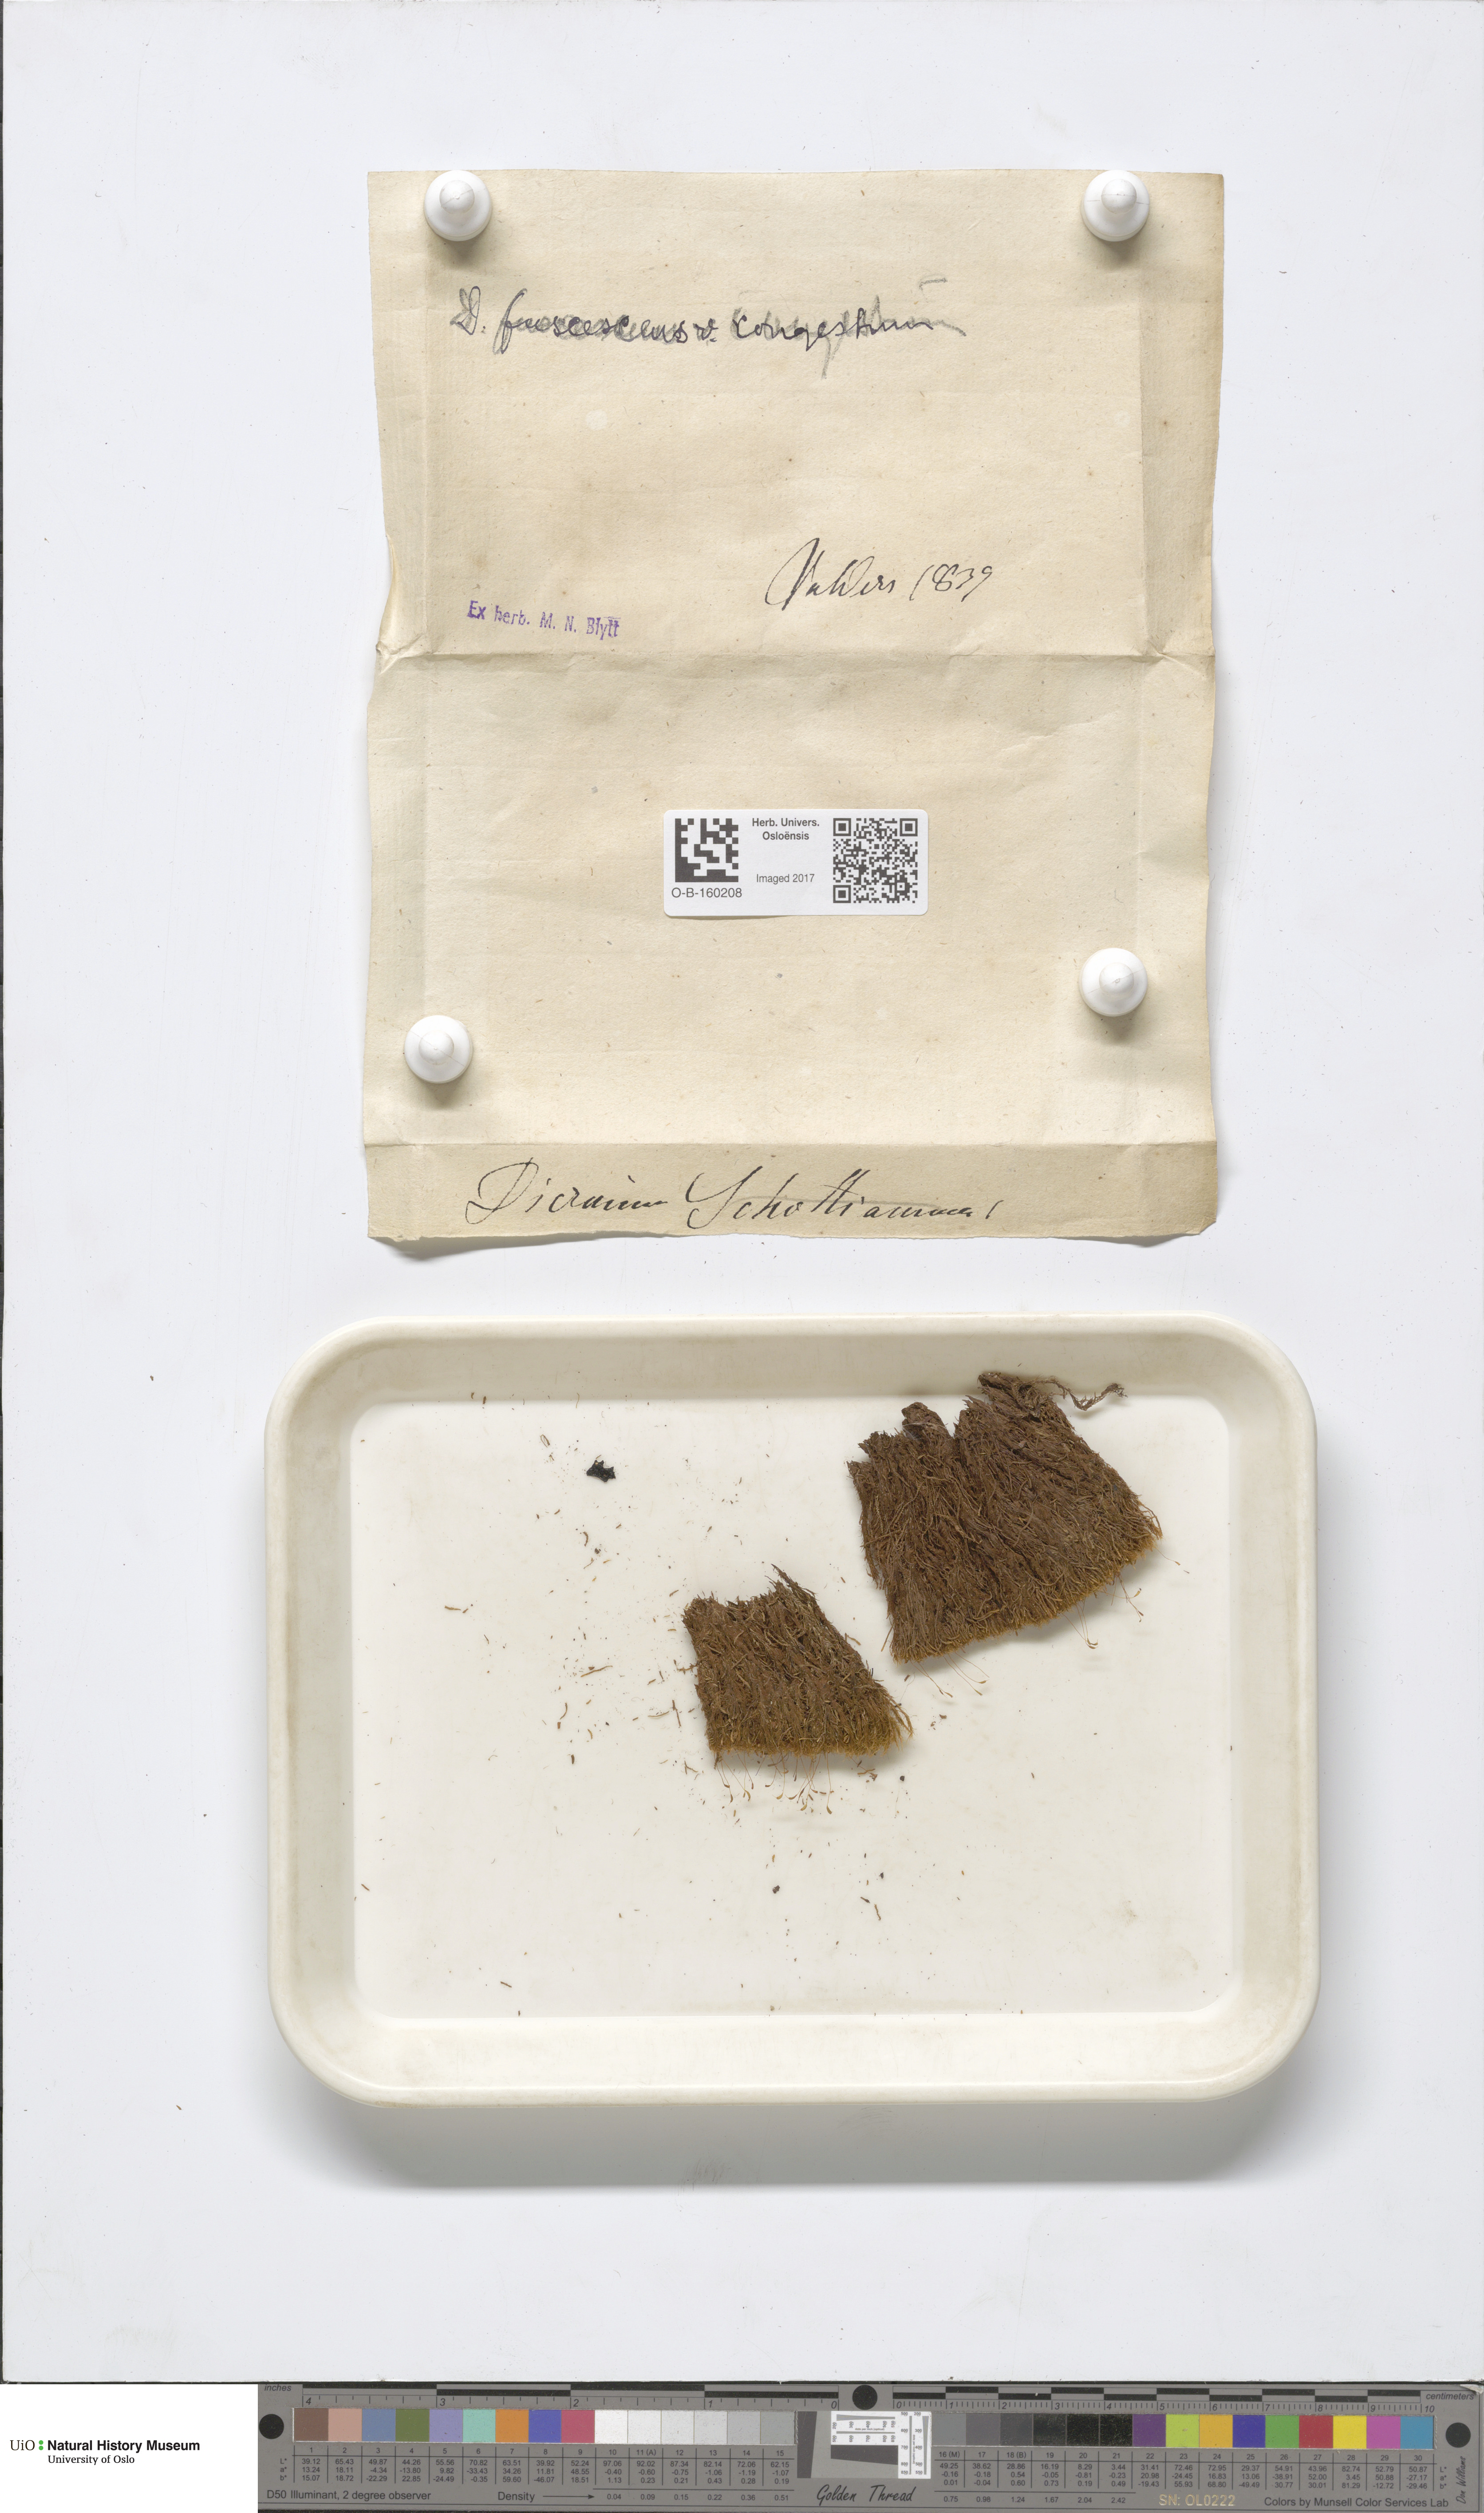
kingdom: Plantae
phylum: Bryophyta
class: Bryopsida
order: Dicranales
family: Dicranaceae
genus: Dicranum
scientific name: Dicranum flexicaule
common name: Bendy heron s-bill moss
